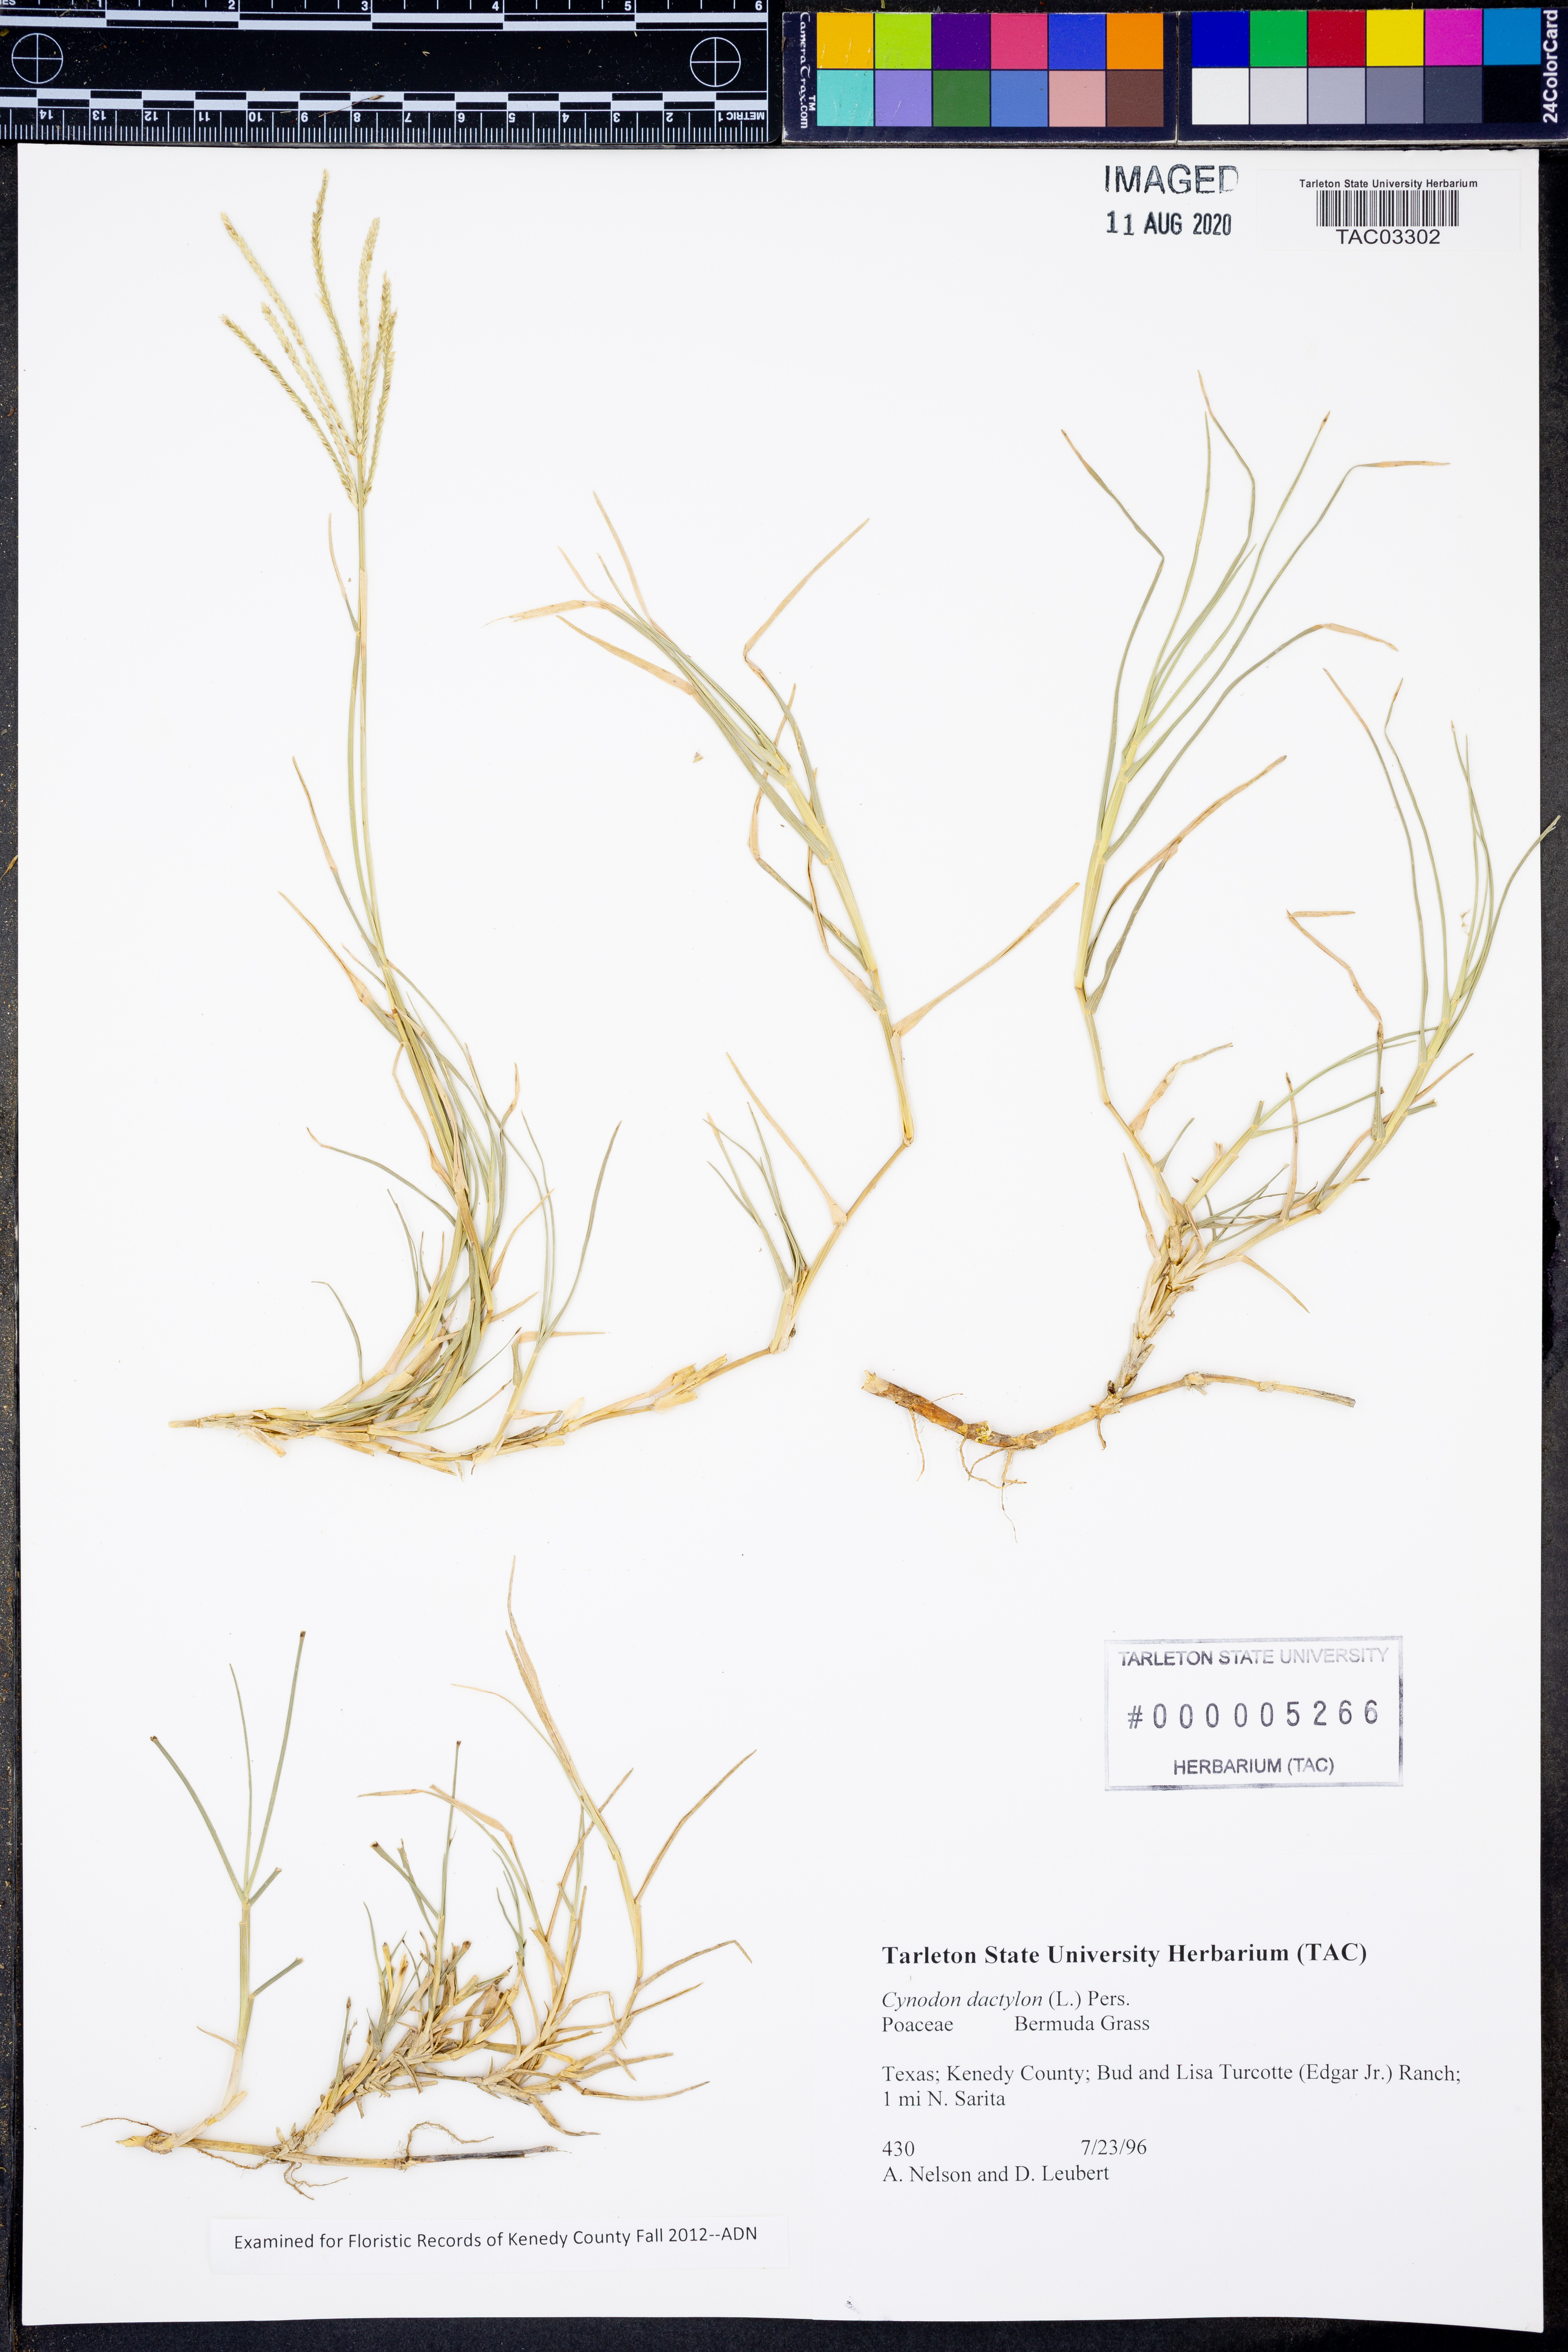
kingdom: Plantae
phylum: Tracheophyta
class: Liliopsida
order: Poales
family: Poaceae
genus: Cynodon
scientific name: Cynodon dactylon
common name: Bermuda grass
